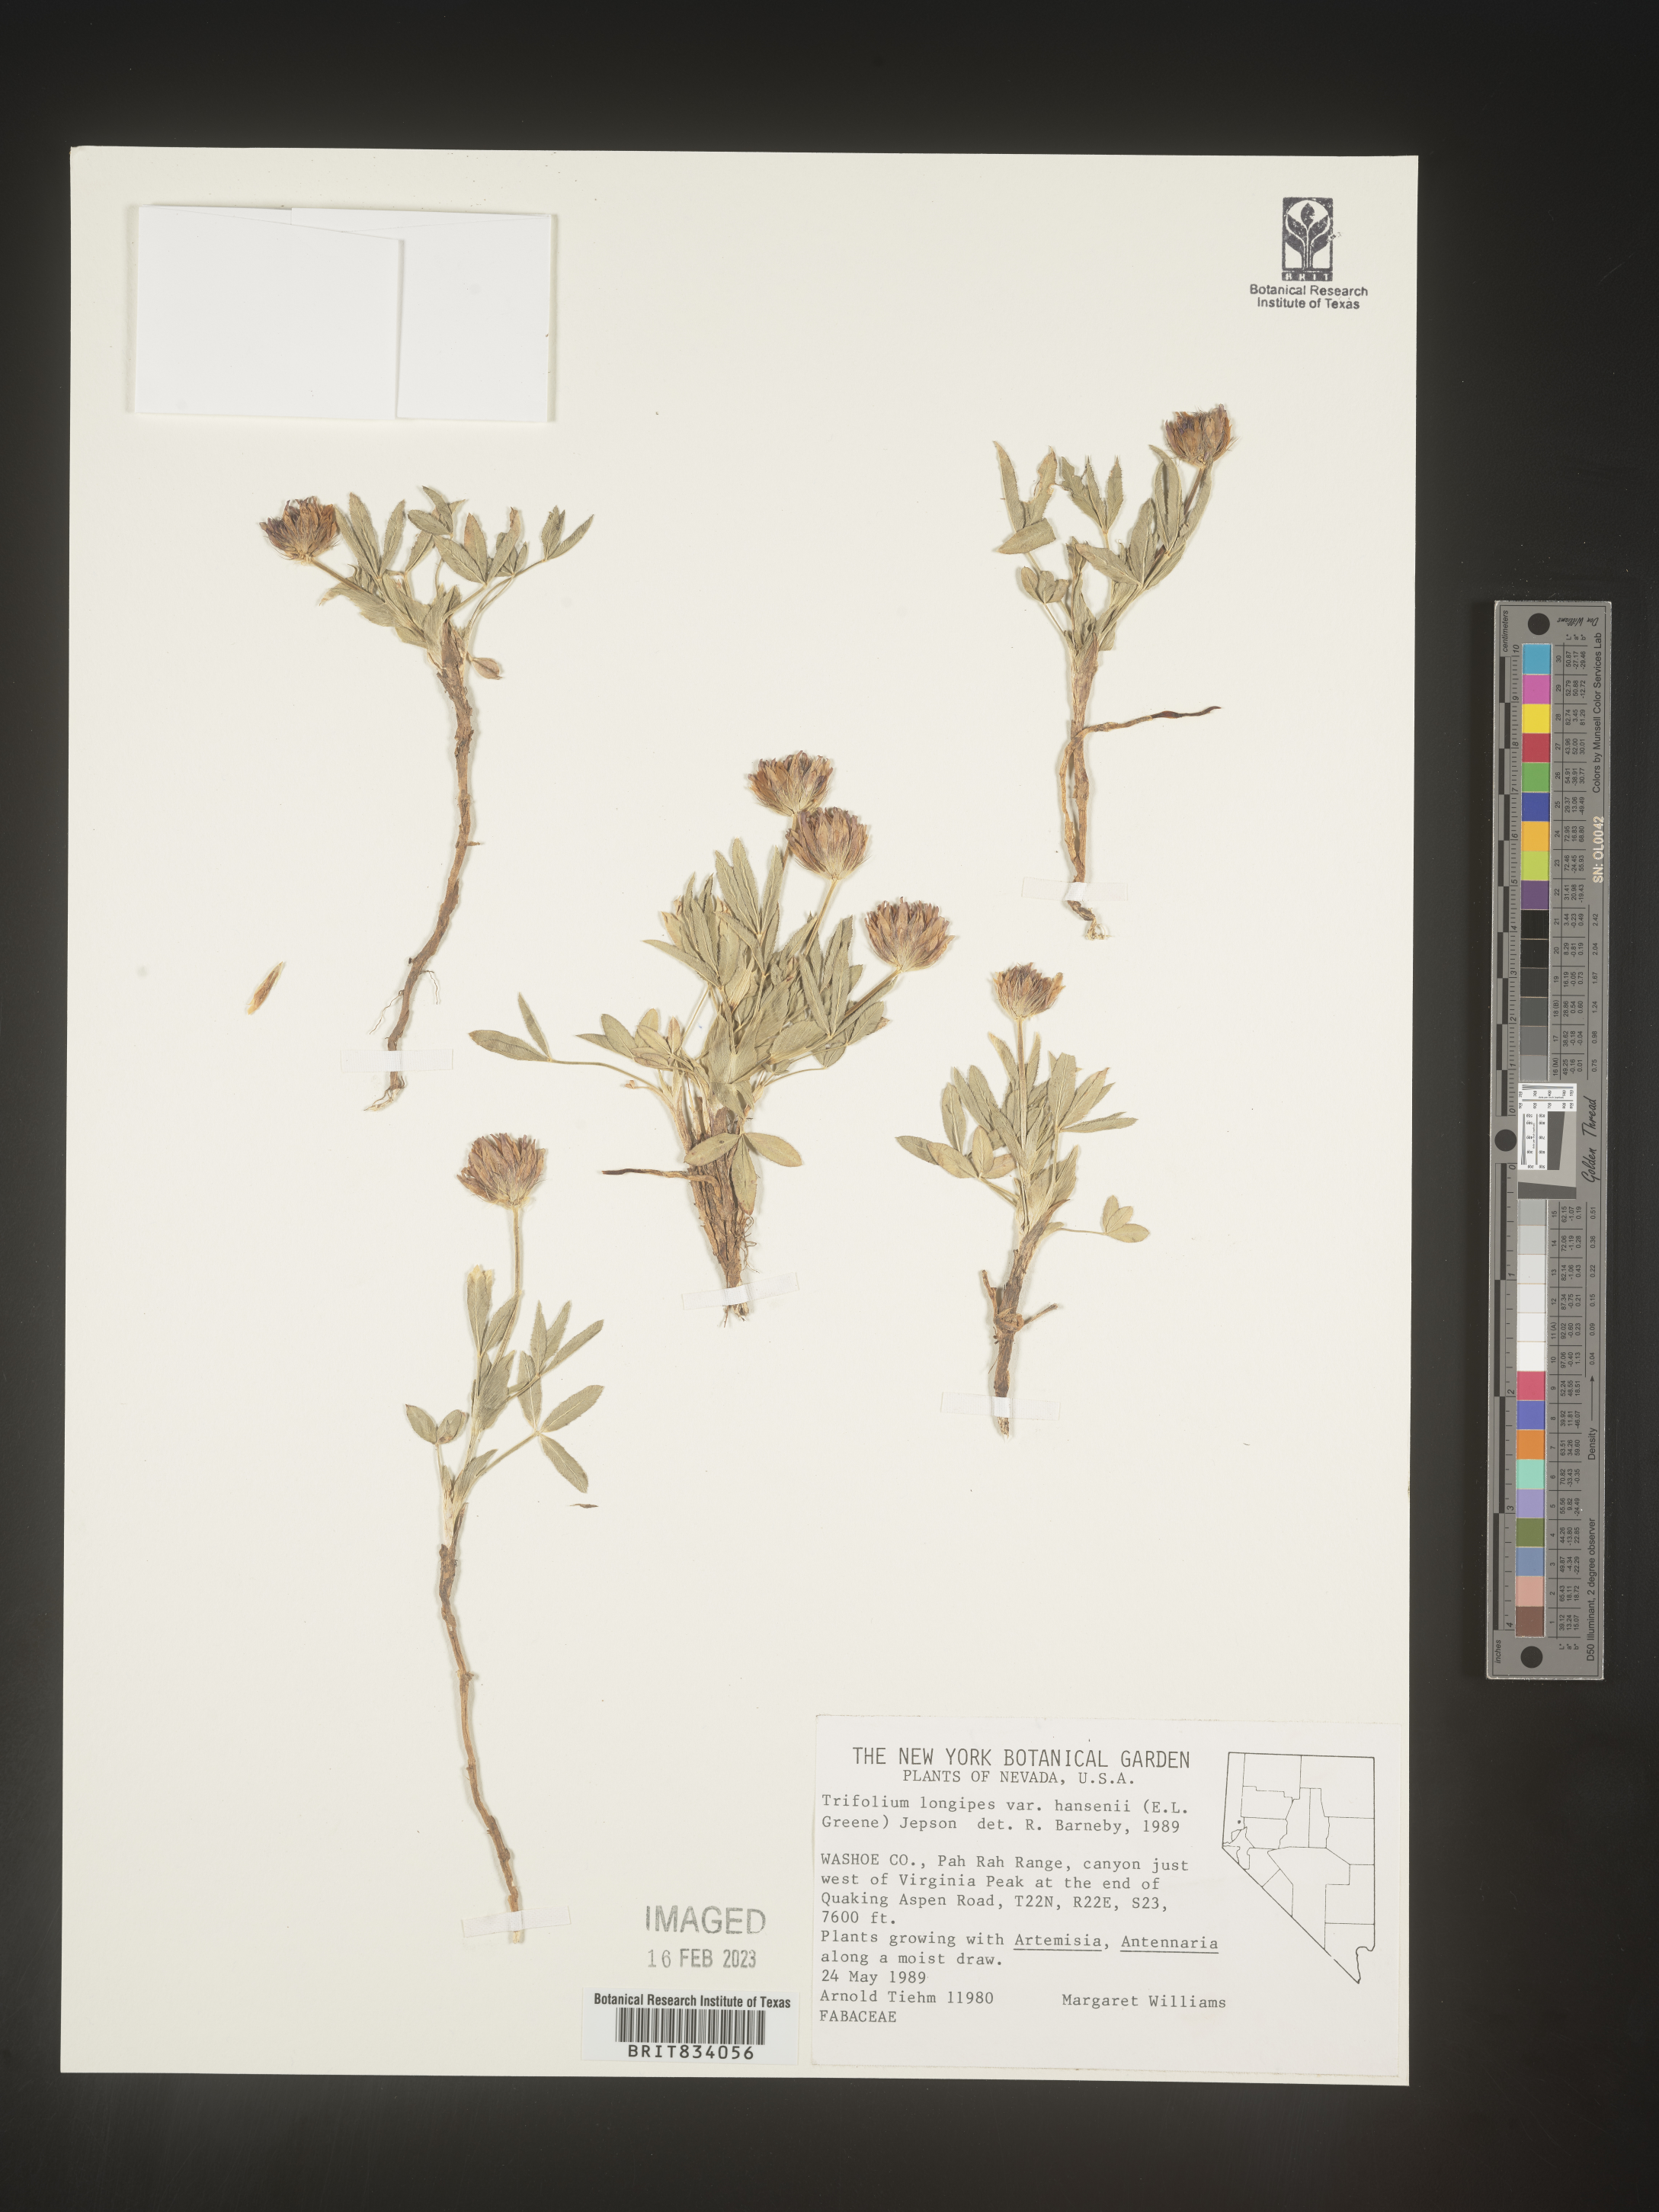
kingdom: Plantae
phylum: Tracheophyta
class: Magnoliopsida
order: Fabales
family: Fabaceae
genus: Trifolium
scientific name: Trifolium
